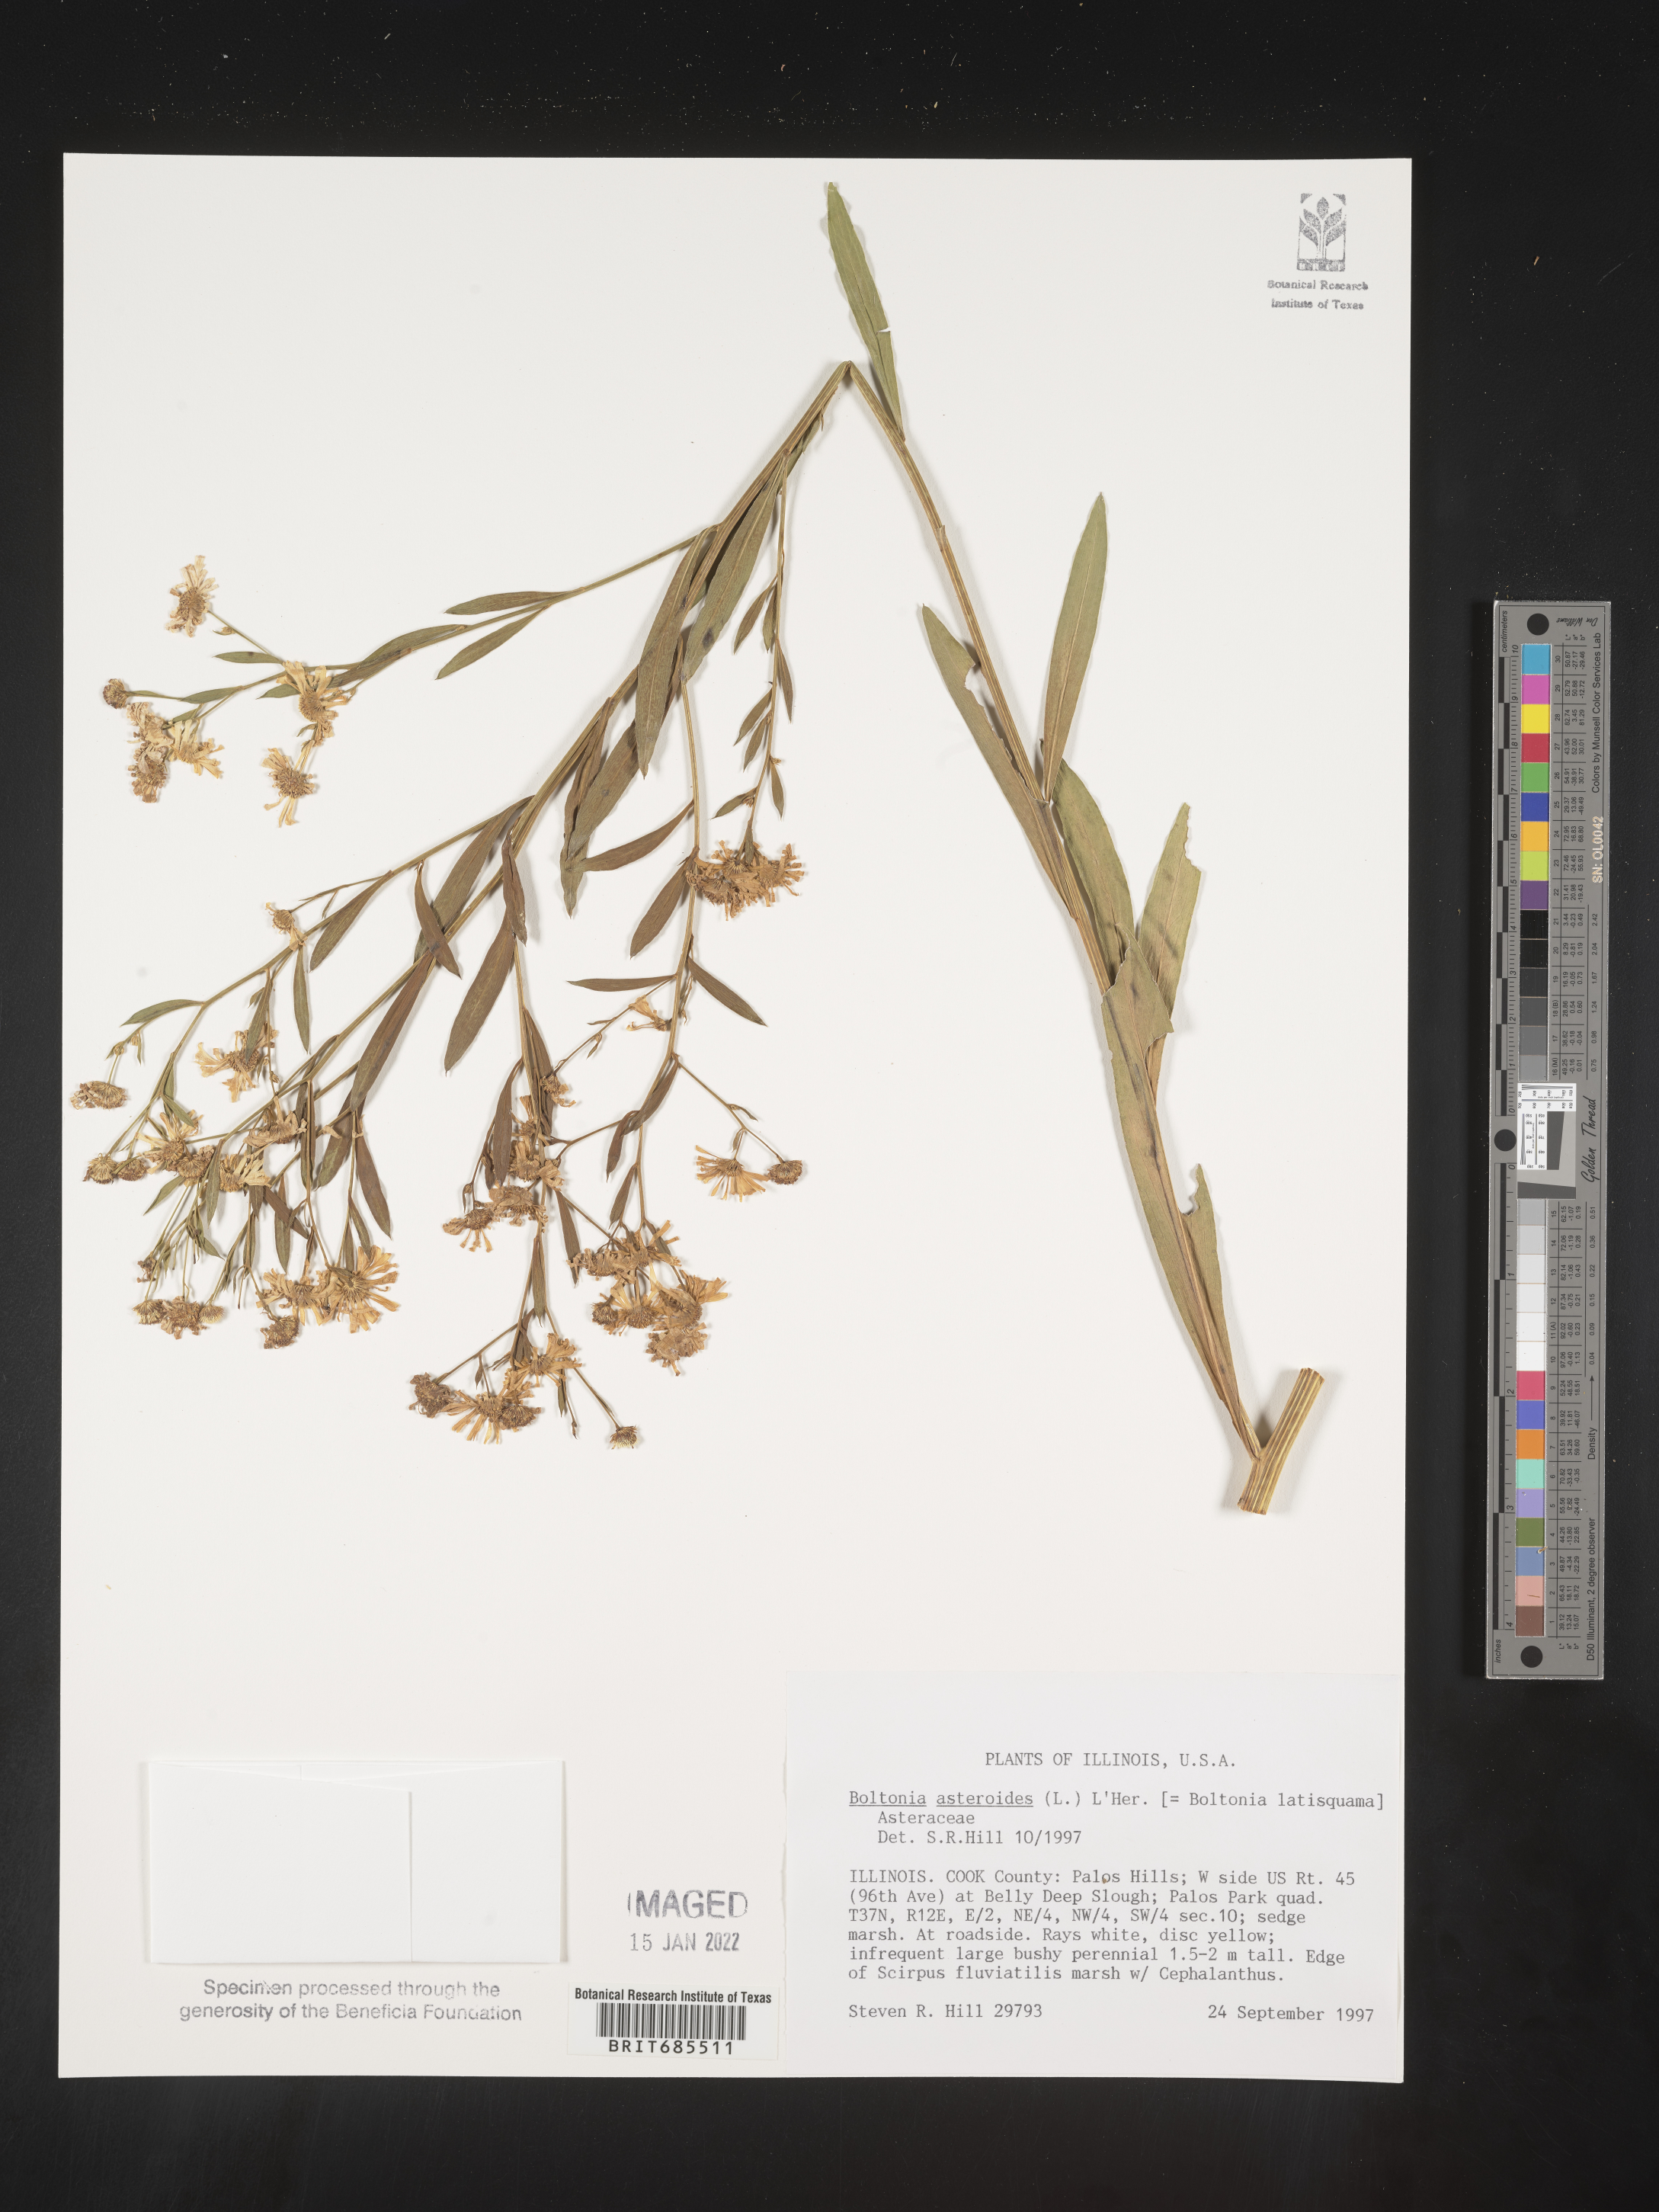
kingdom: Plantae
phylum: Tracheophyta
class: Magnoliopsida
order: Asterales
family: Asteraceae
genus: Boltonia
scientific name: Boltonia asteroides
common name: False chamomile
